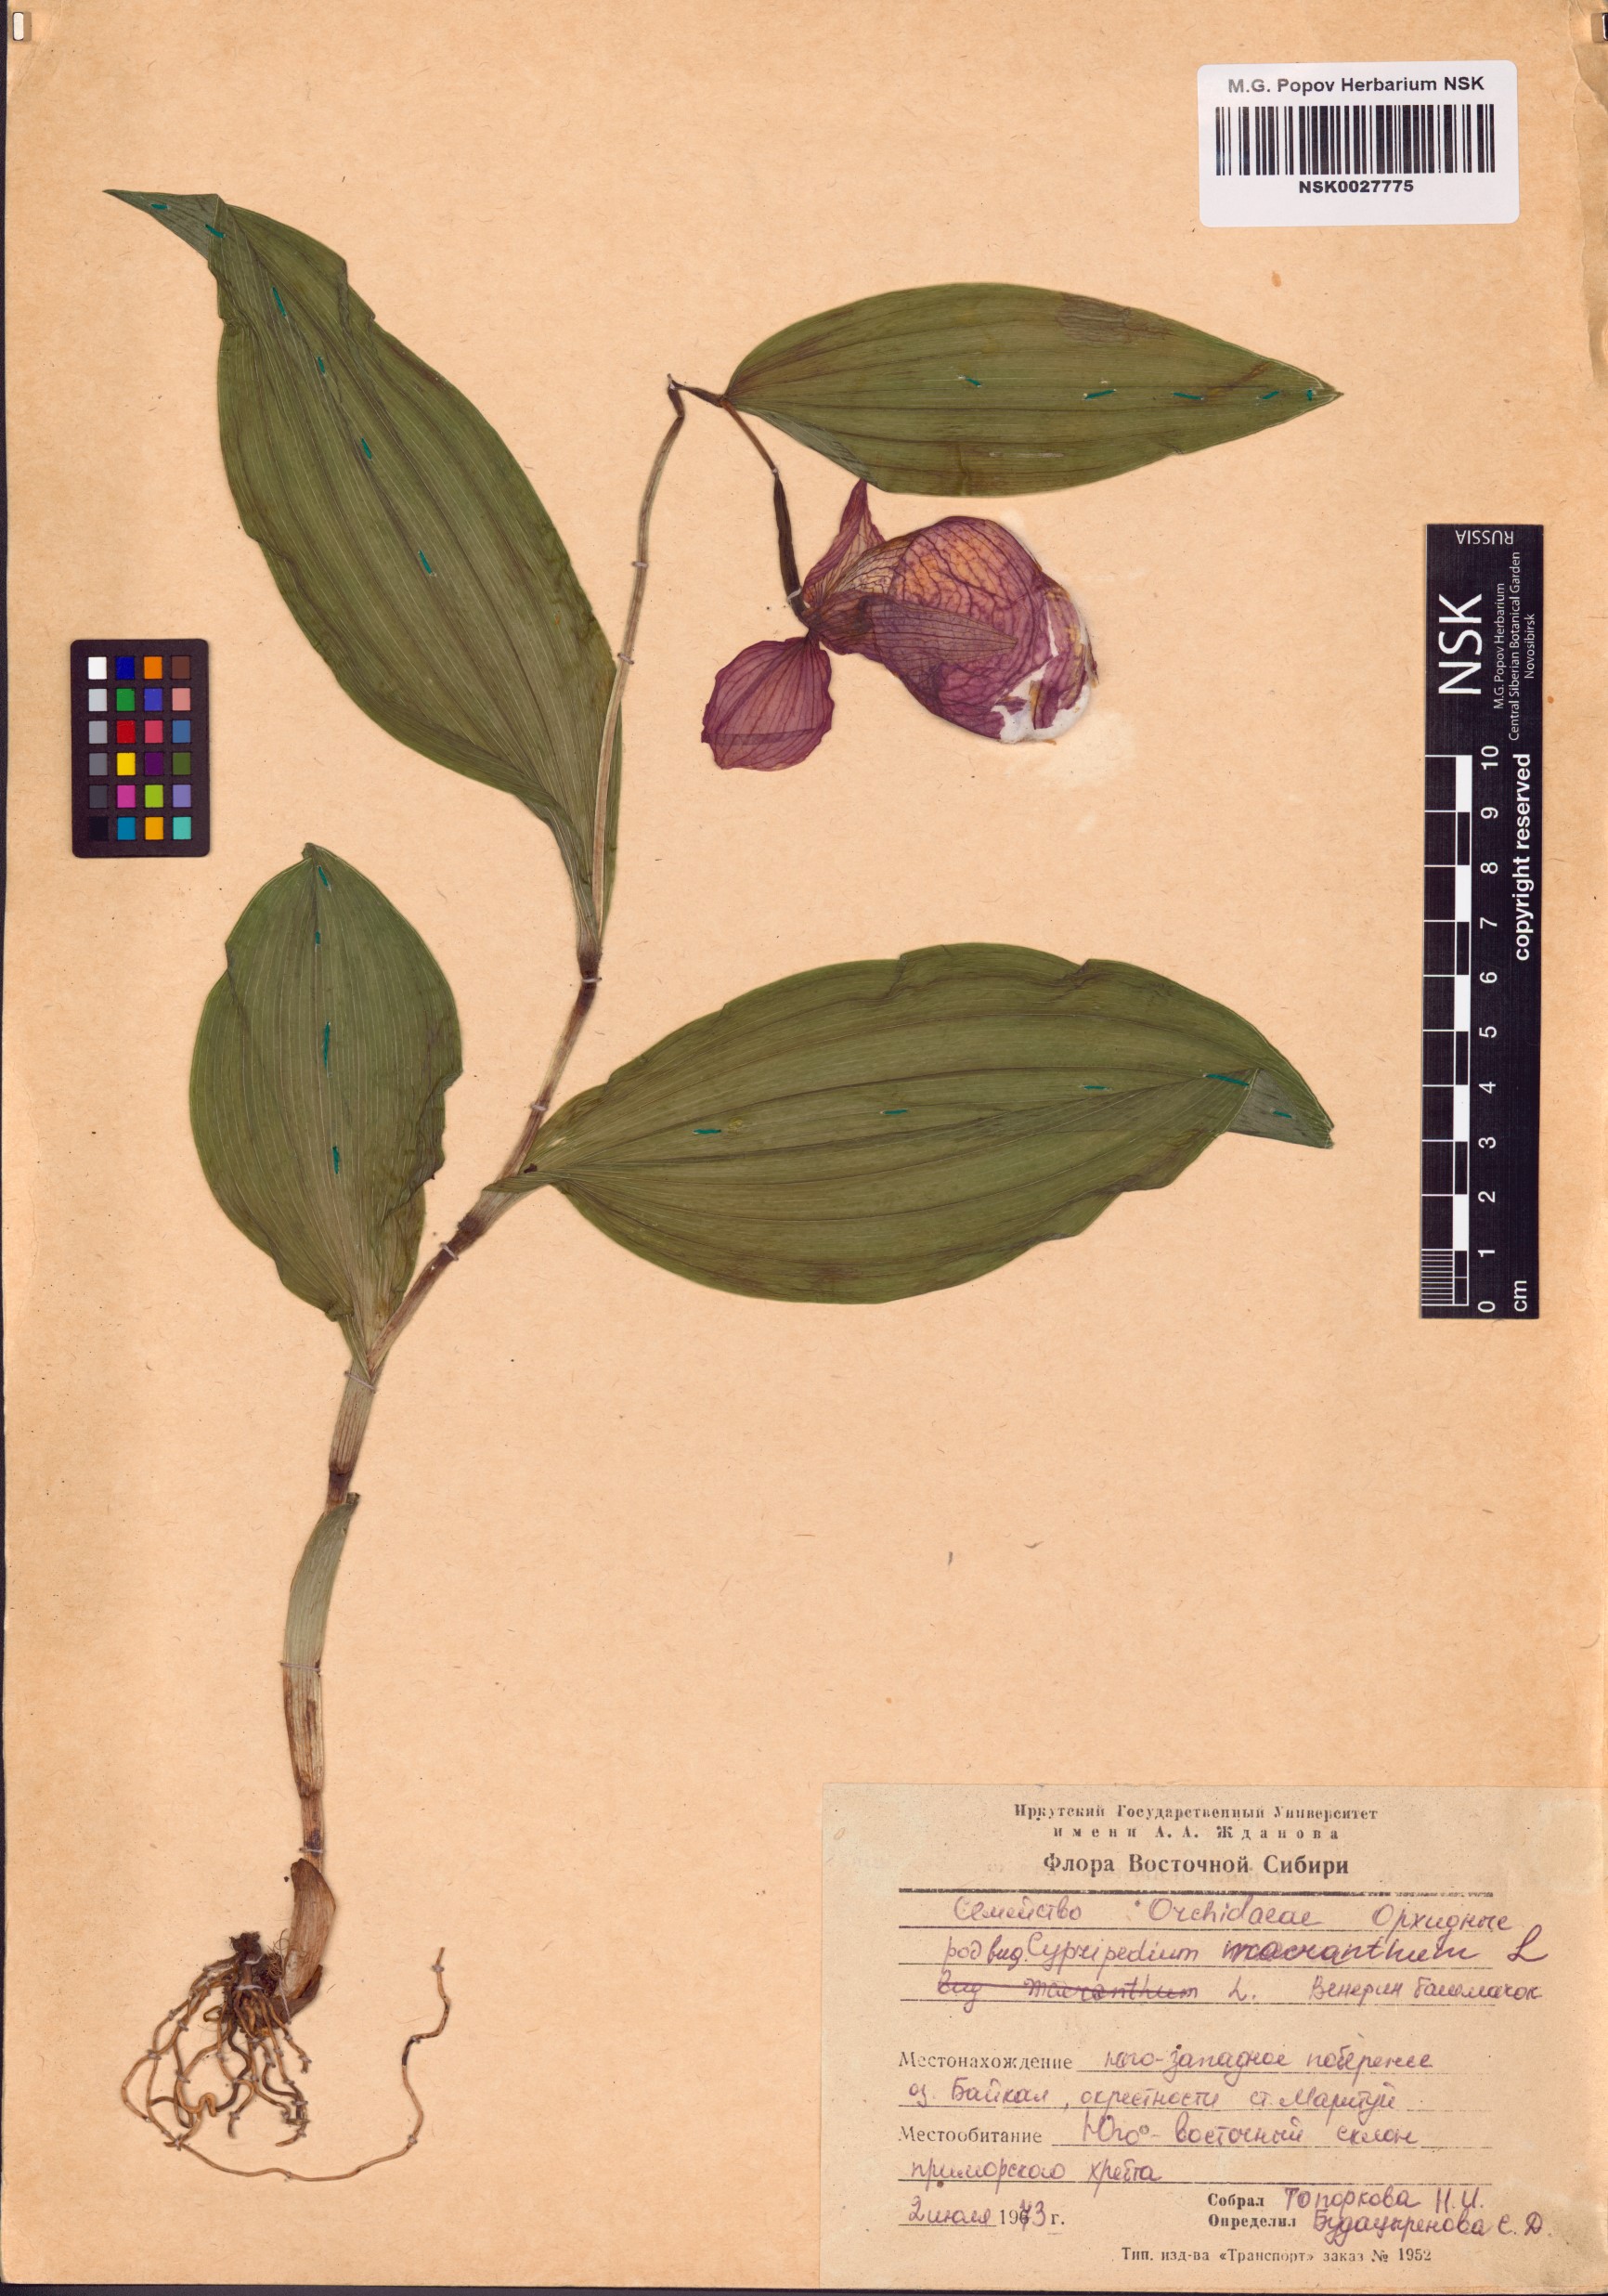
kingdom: Plantae
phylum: Tracheophyta
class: Liliopsida
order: Asparagales
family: Orchidaceae
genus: Cypripedium
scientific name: Cypripedium macranthos
